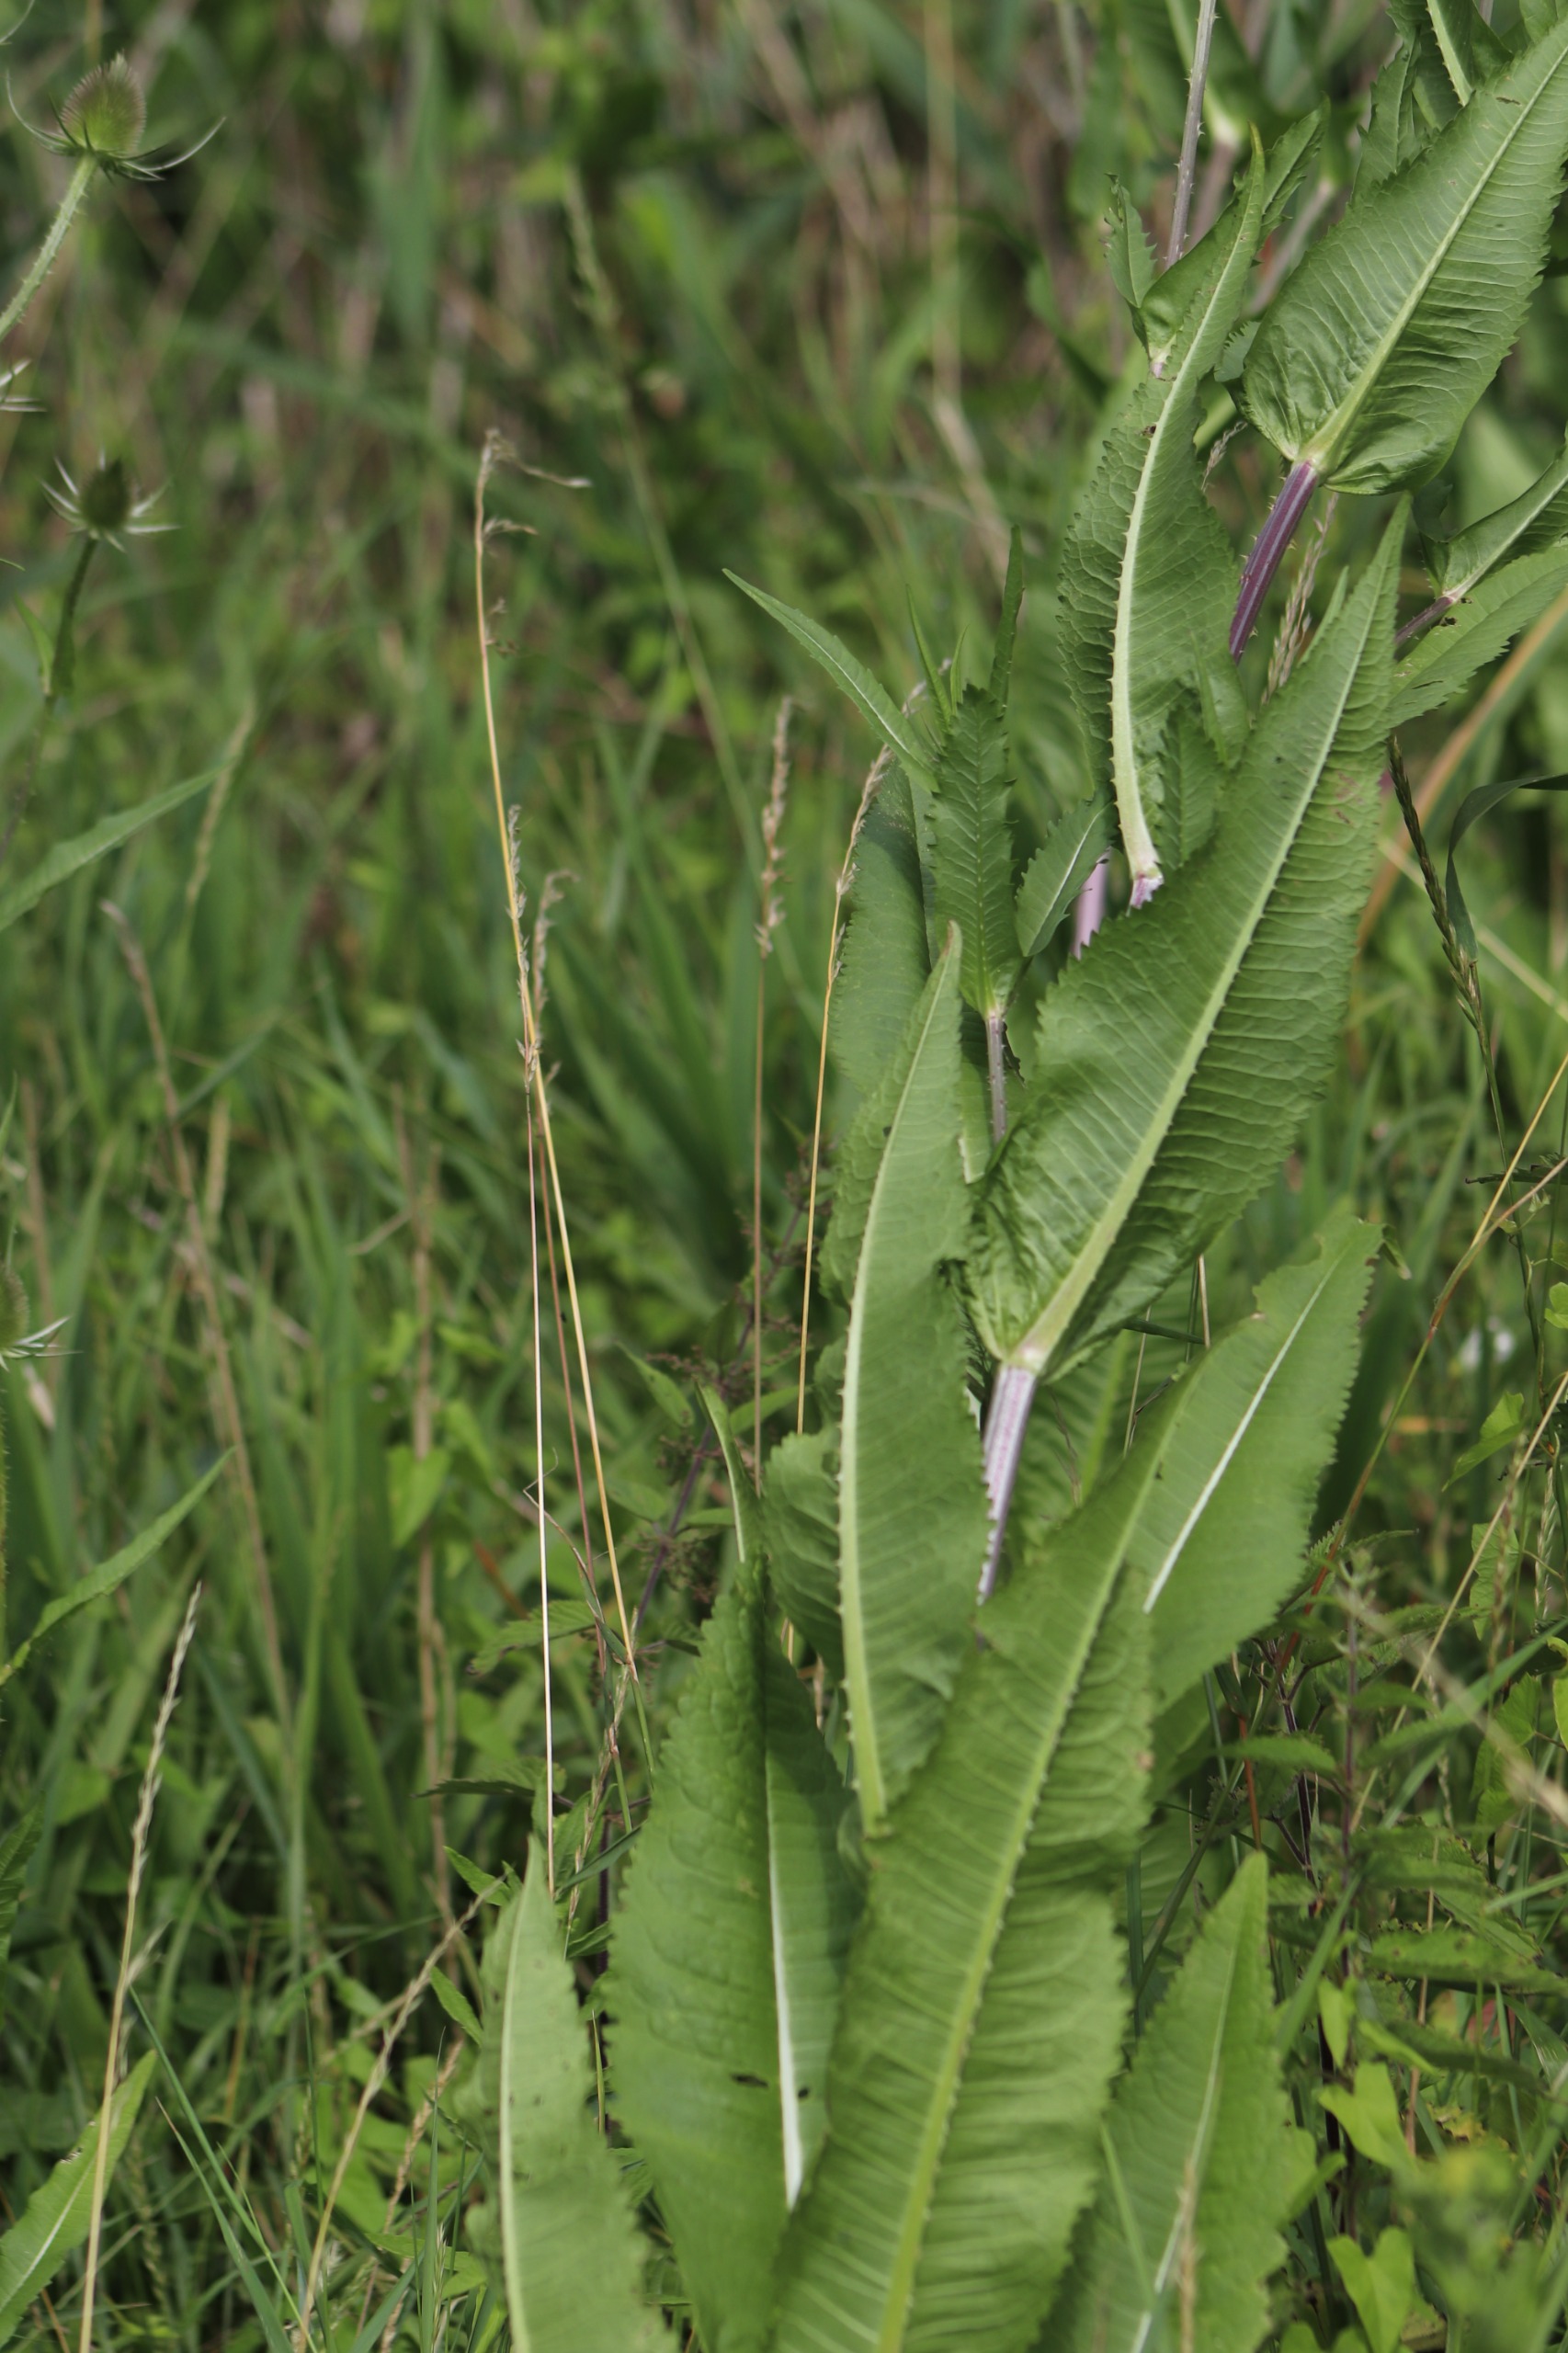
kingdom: Plantae
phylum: Tracheophyta
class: Magnoliopsida
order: Dipsacales
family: Caprifoliaceae
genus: Dipsacus
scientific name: Dipsacus fullonum
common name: Gærde-kartebolle
